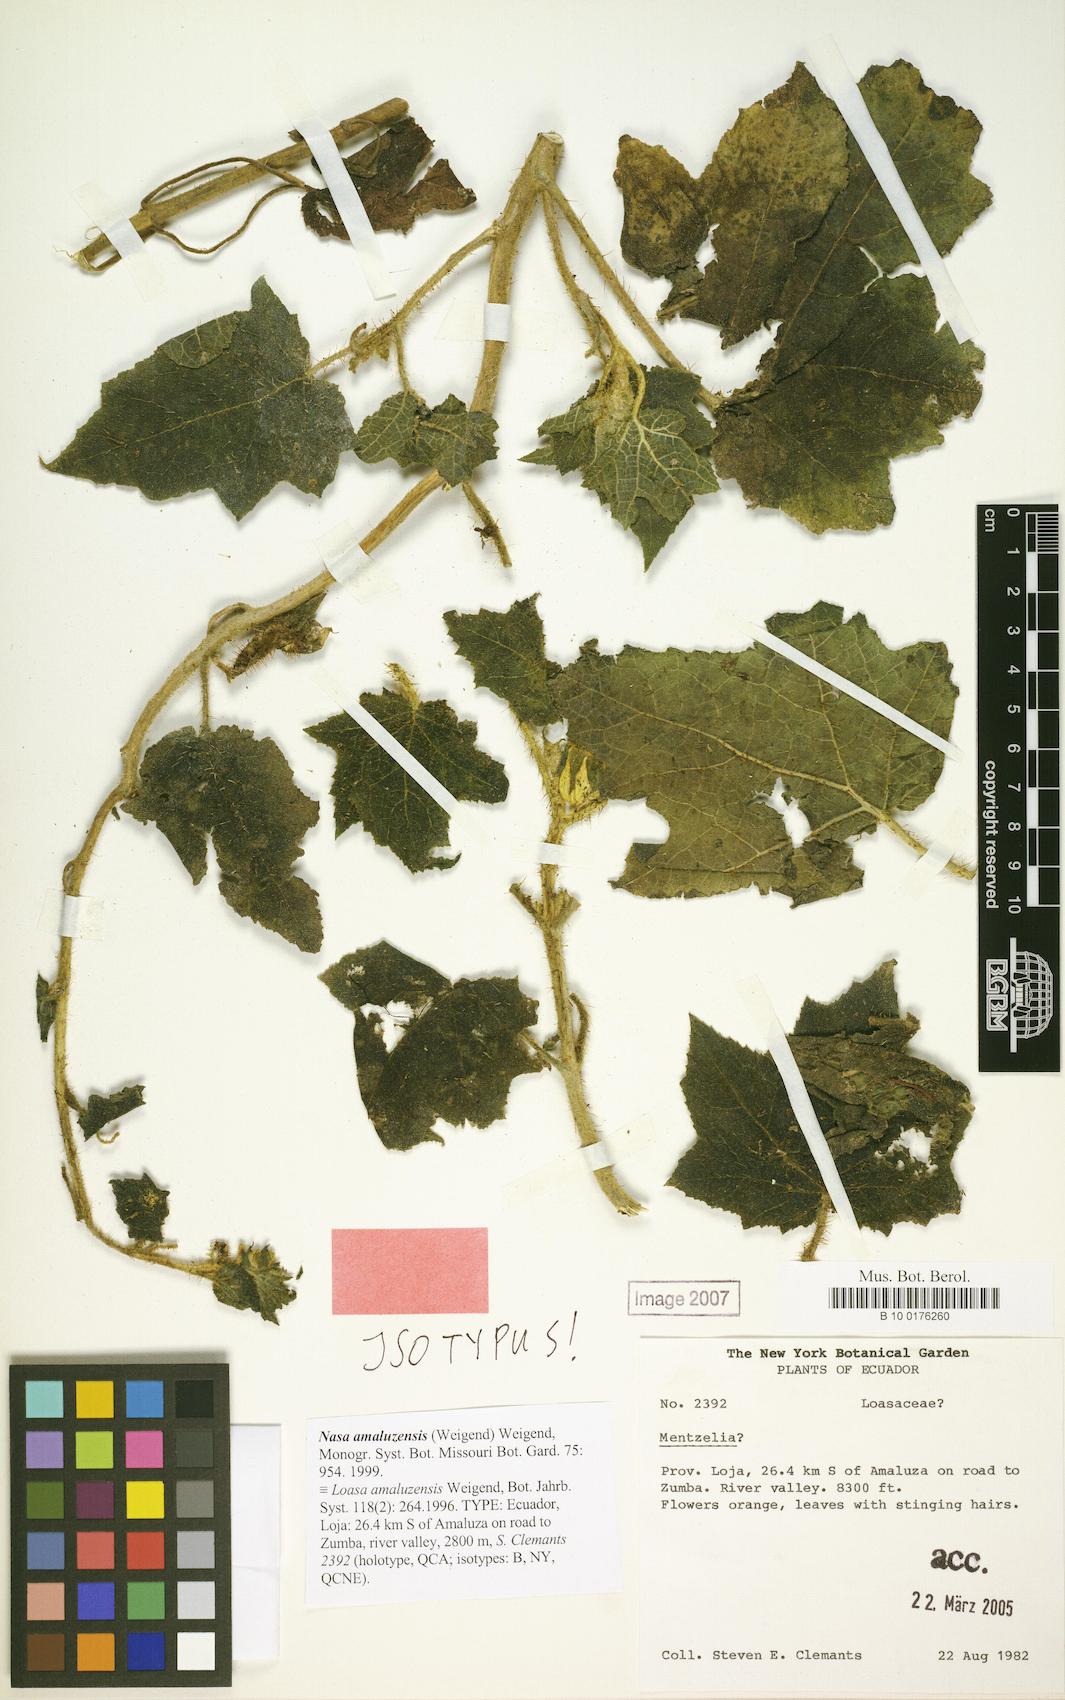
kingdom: Plantae
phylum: Tracheophyta
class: Magnoliopsida
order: Cornales
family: Loasaceae
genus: Nasa
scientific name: Nasa amaluzensis
